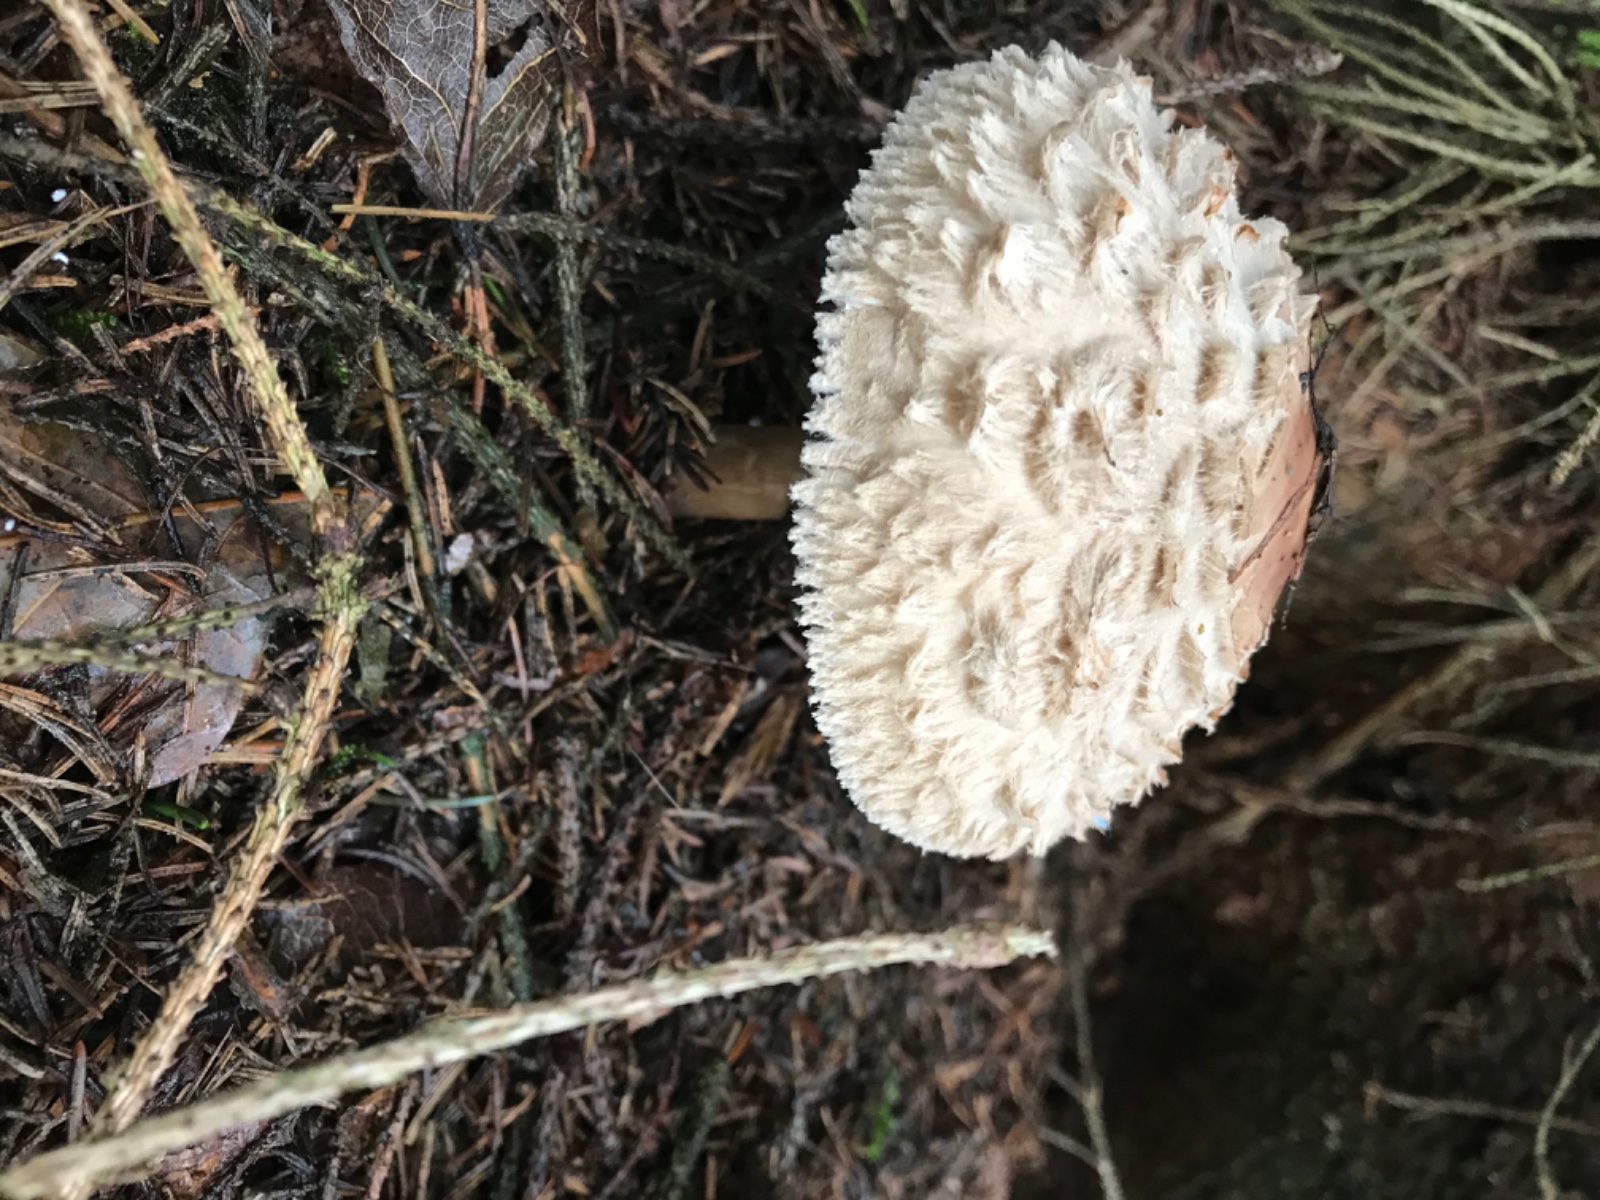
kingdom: Fungi
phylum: Basidiomycota
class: Agaricomycetes
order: Agaricales
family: Agaricaceae
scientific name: Agaricaceae
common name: champignonfamilien
